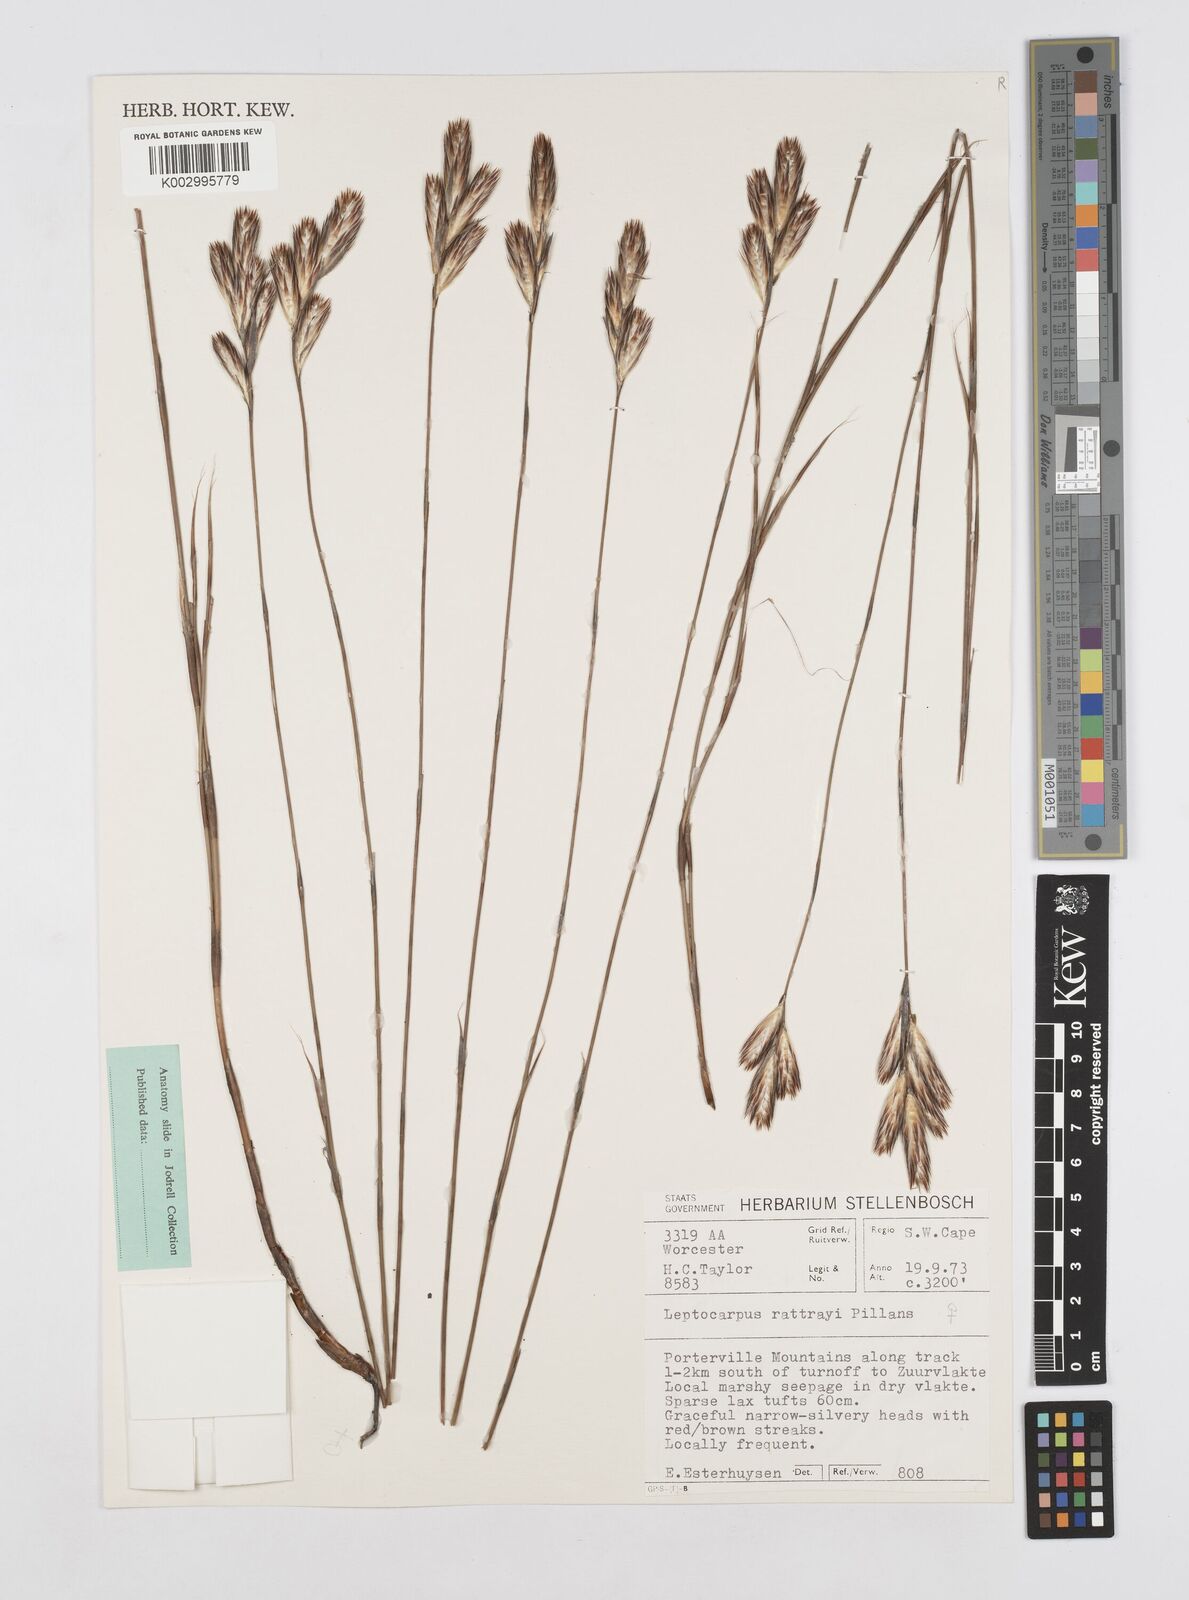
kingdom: Plantae
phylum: Tracheophyta
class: Liliopsida
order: Poales
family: Restionaceae
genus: Hydrophilus
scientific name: Hydrophilus rattrayi
